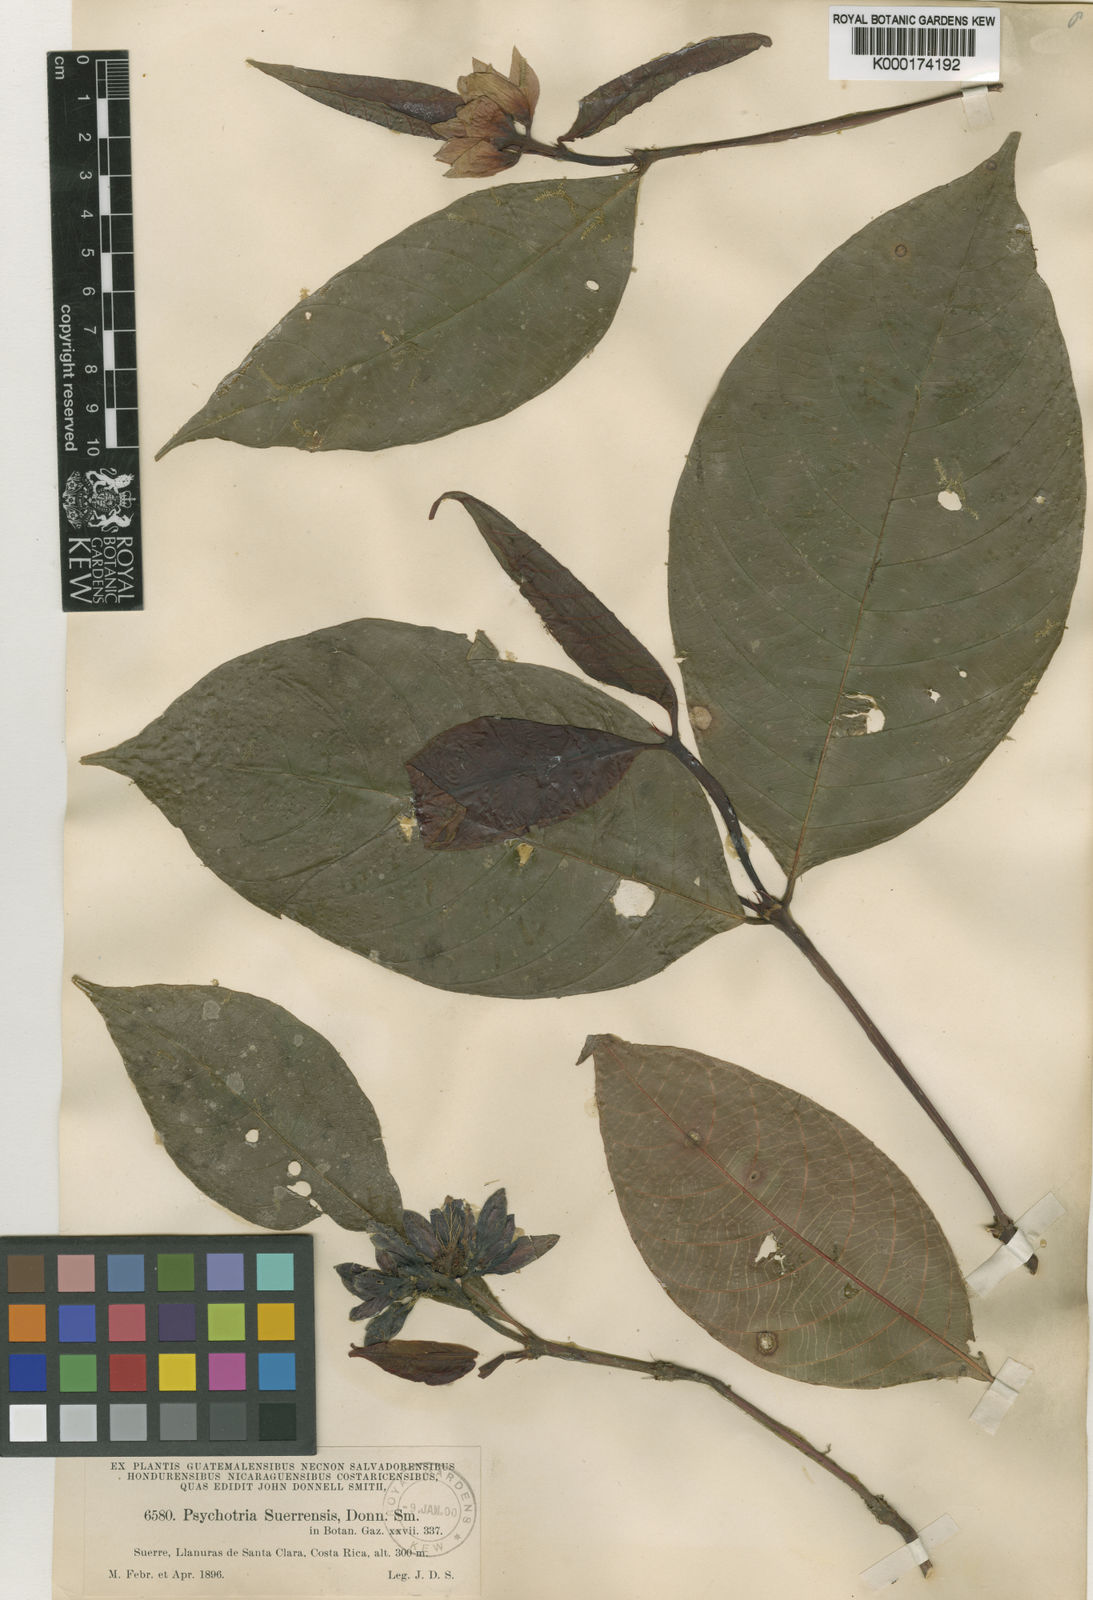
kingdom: Plantae
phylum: Tracheophyta
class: Magnoliopsida
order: Gentianales
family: Rubiaceae
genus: Palicourea
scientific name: Palicourea suerrensis
